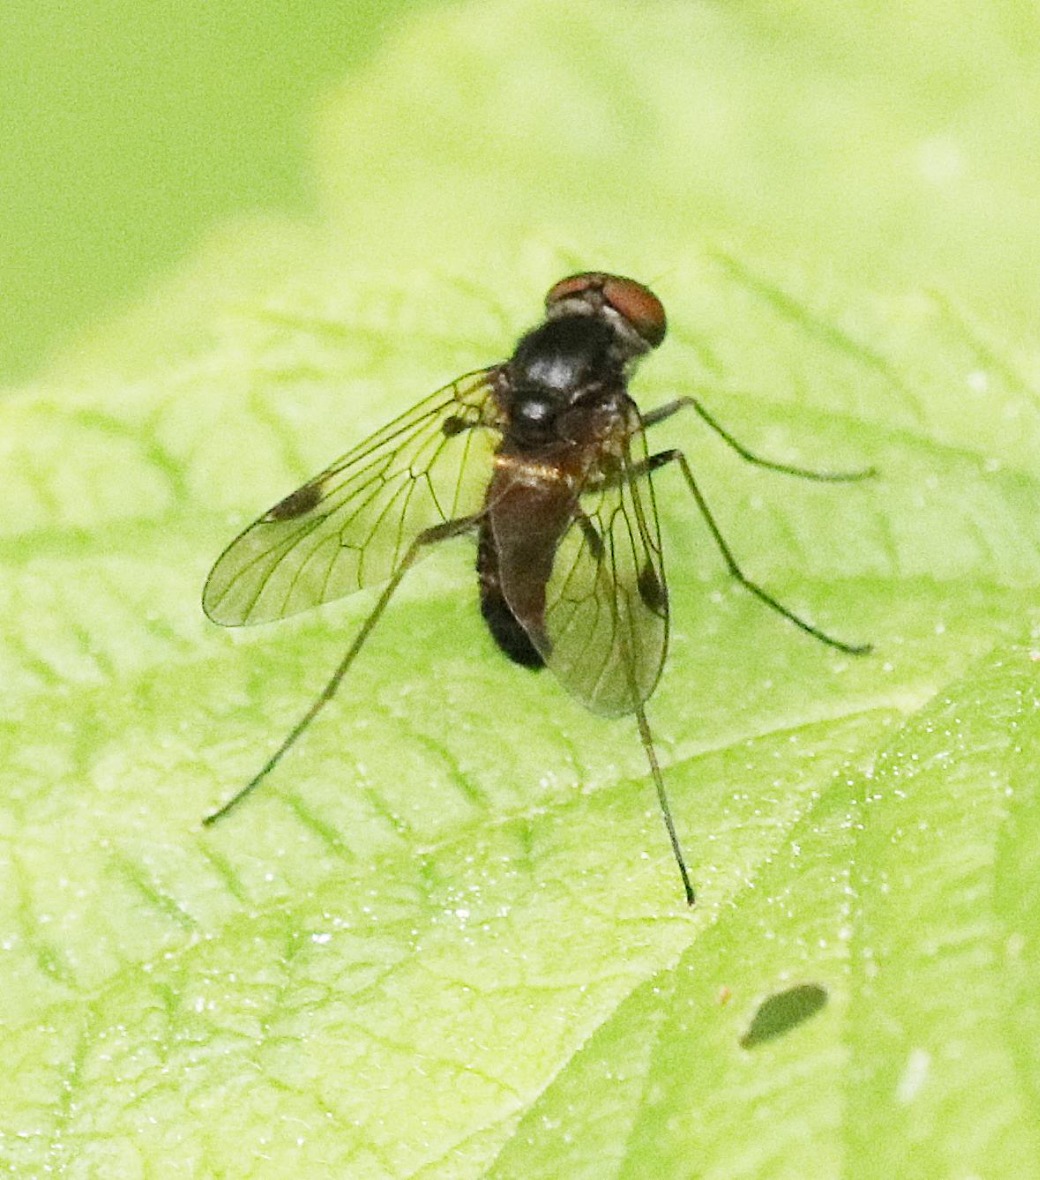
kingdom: Animalia
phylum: Arthropoda
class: Insecta
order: Diptera
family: Rhagionidae
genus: Chrysopilus
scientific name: Chrysopilus cristatus
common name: Gulhåret sneppeflue
